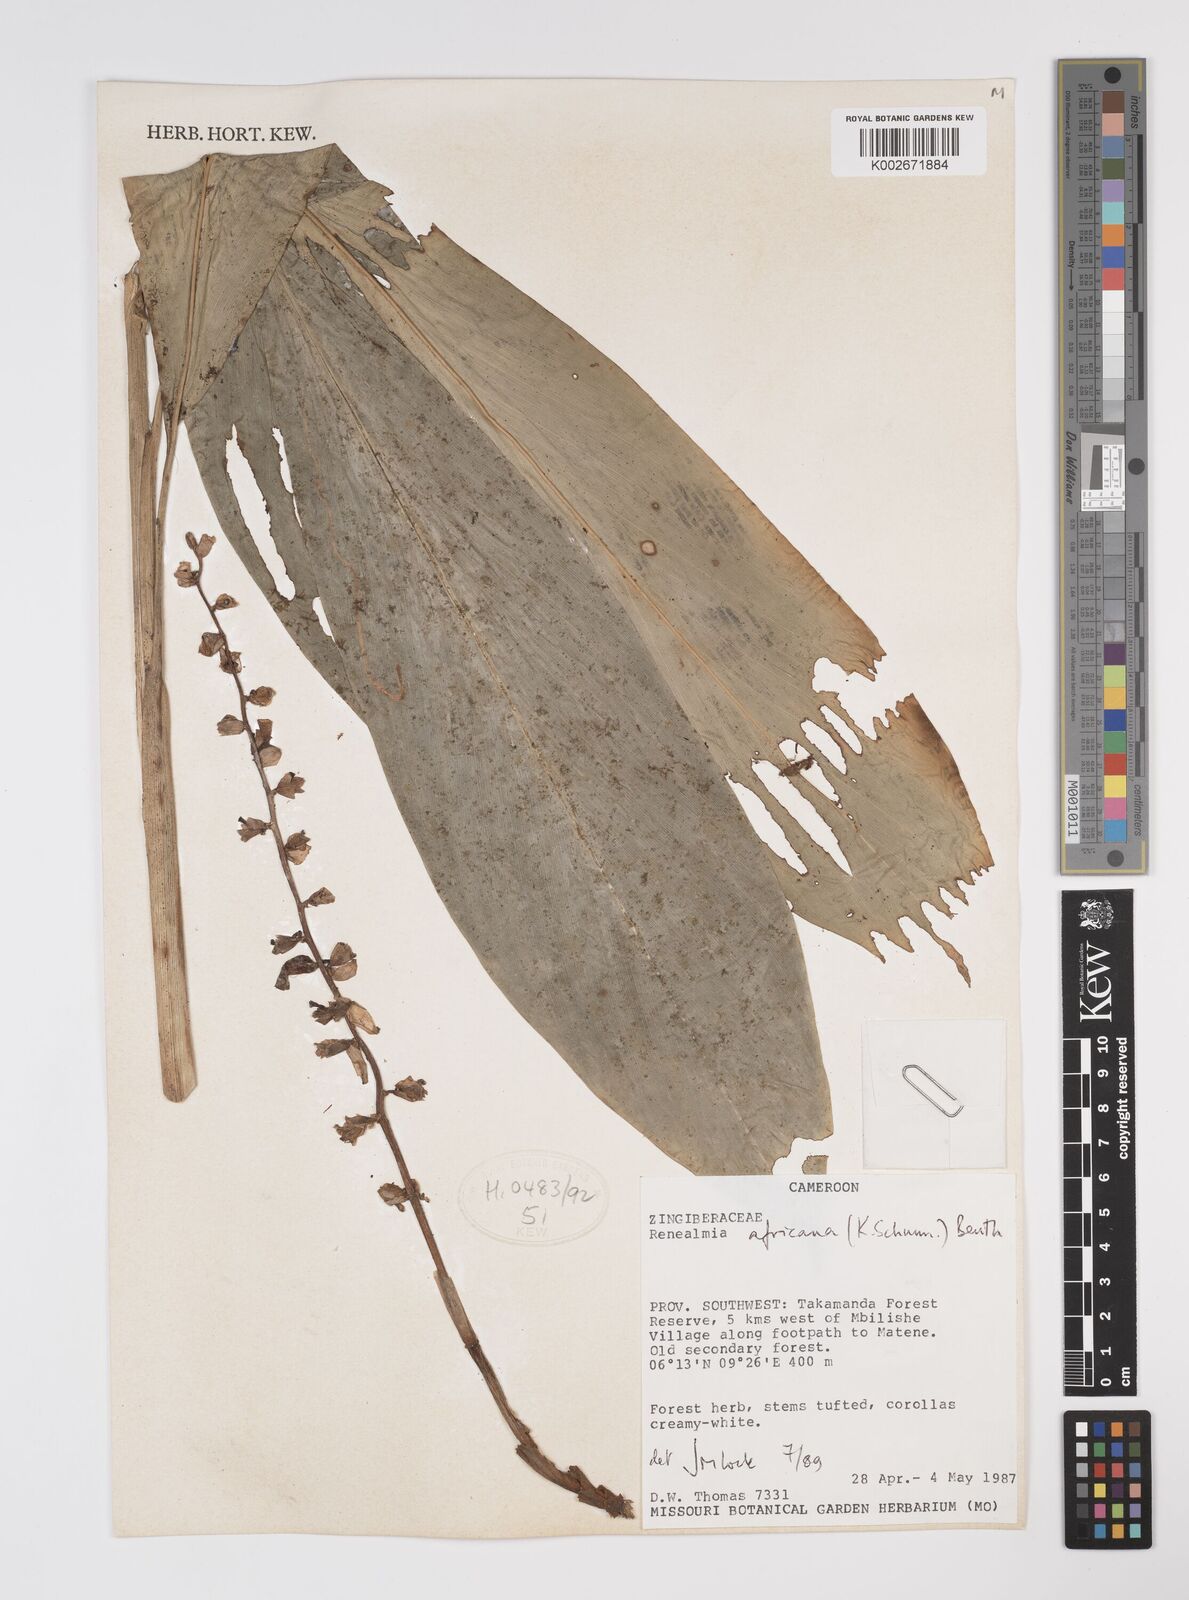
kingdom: Plantae
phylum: Tracheophyta
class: Liliopsida
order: Zingiberales
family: Zingiberaceae
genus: Renealmia
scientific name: Renealmia africana
